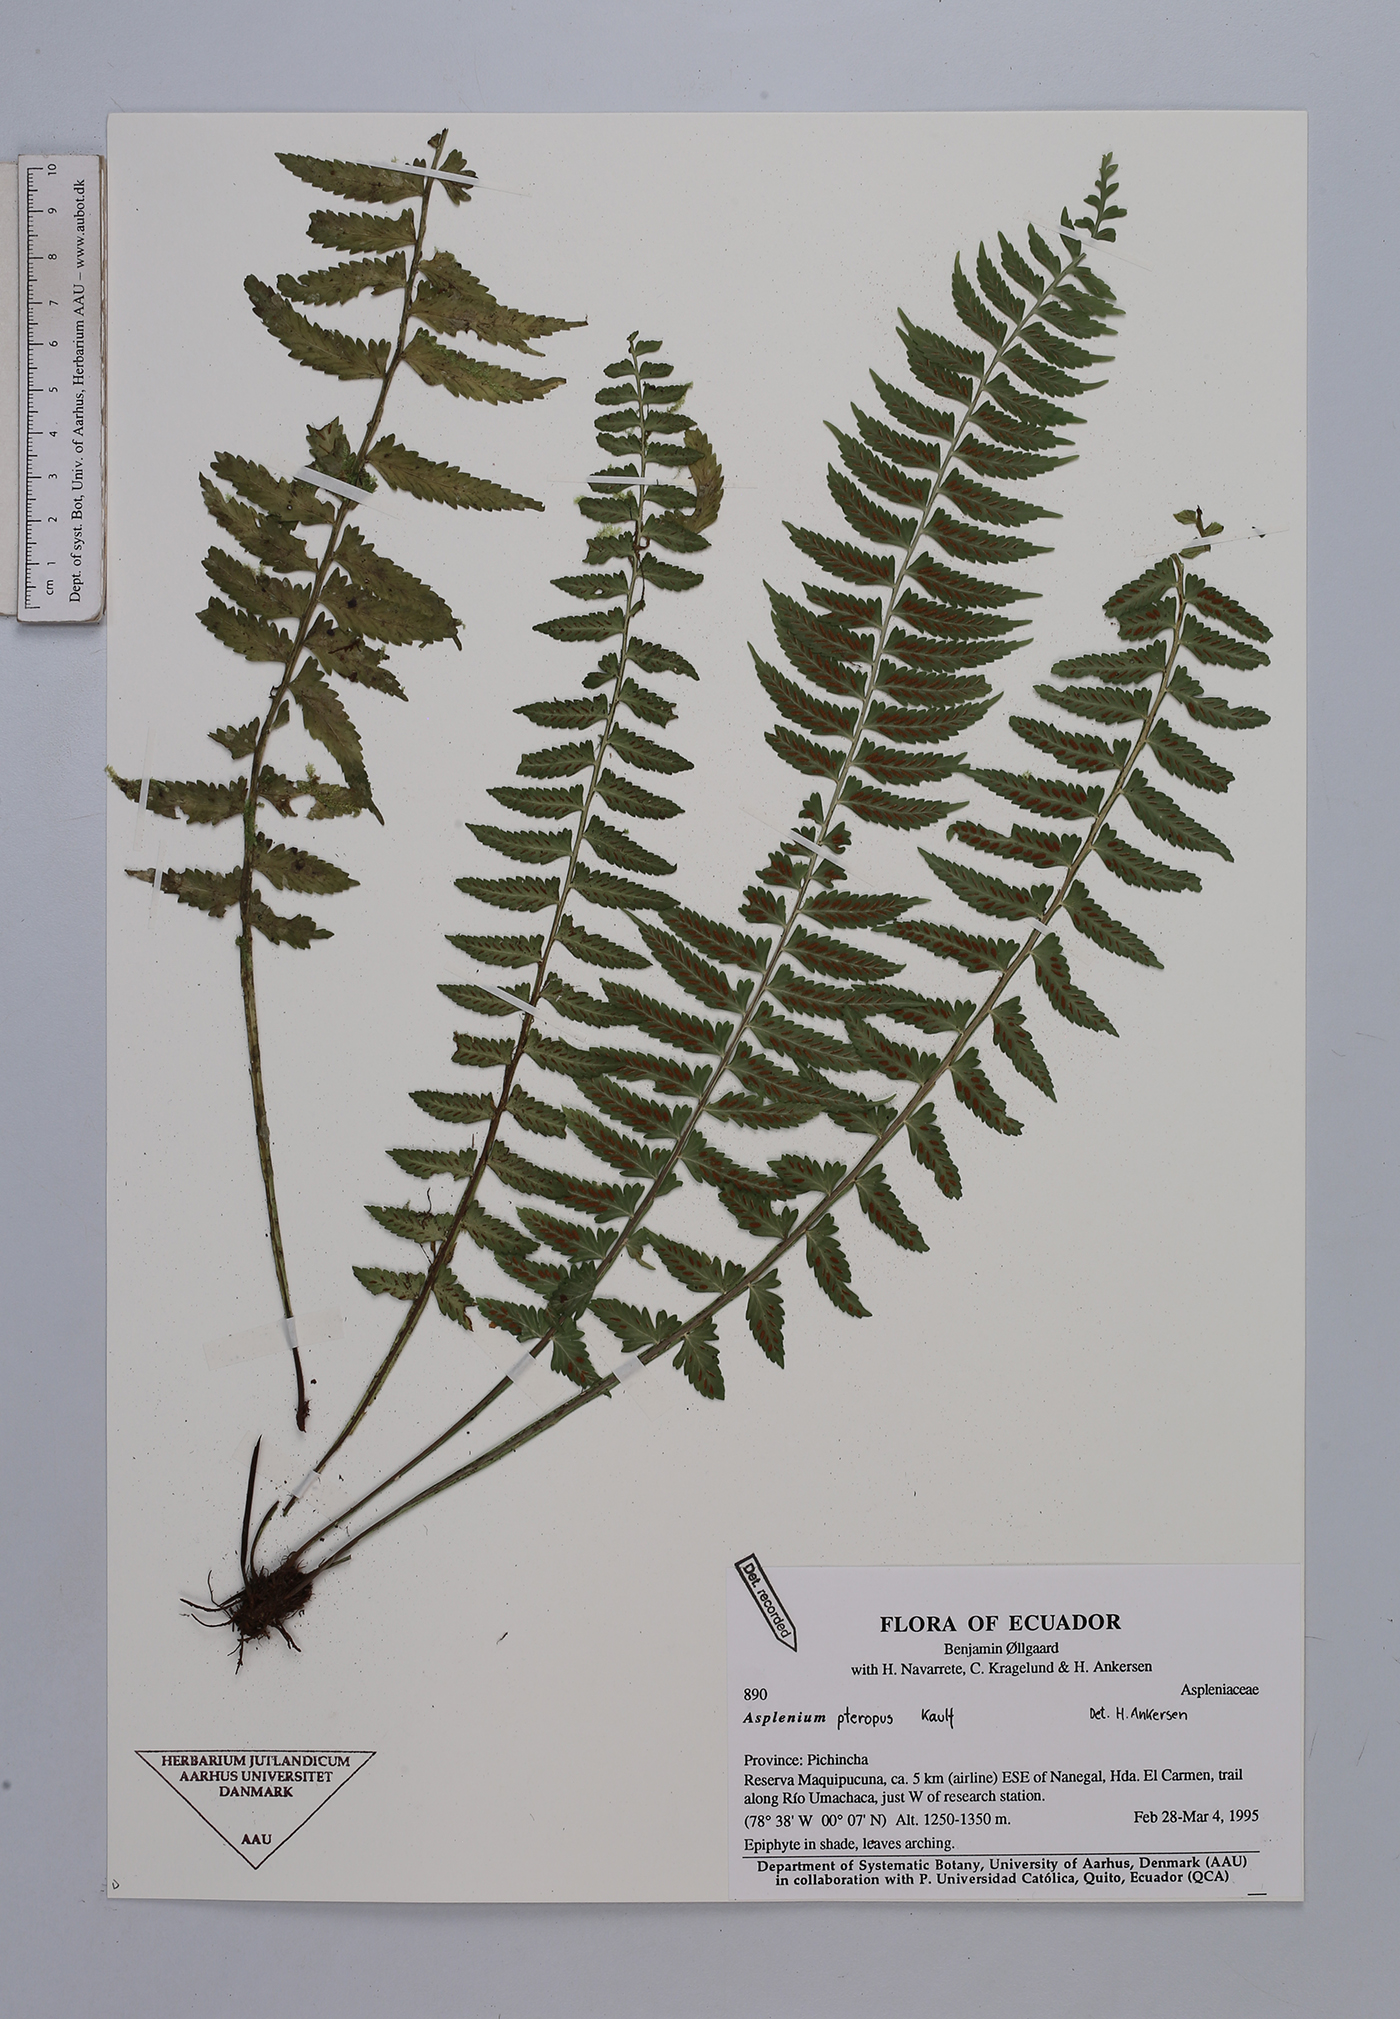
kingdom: Plantae
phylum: Tracheophyta
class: Polypodiopsida
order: Polypodiales
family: Aspleniaceae
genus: Asplenium
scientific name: Asplenium pteropus
